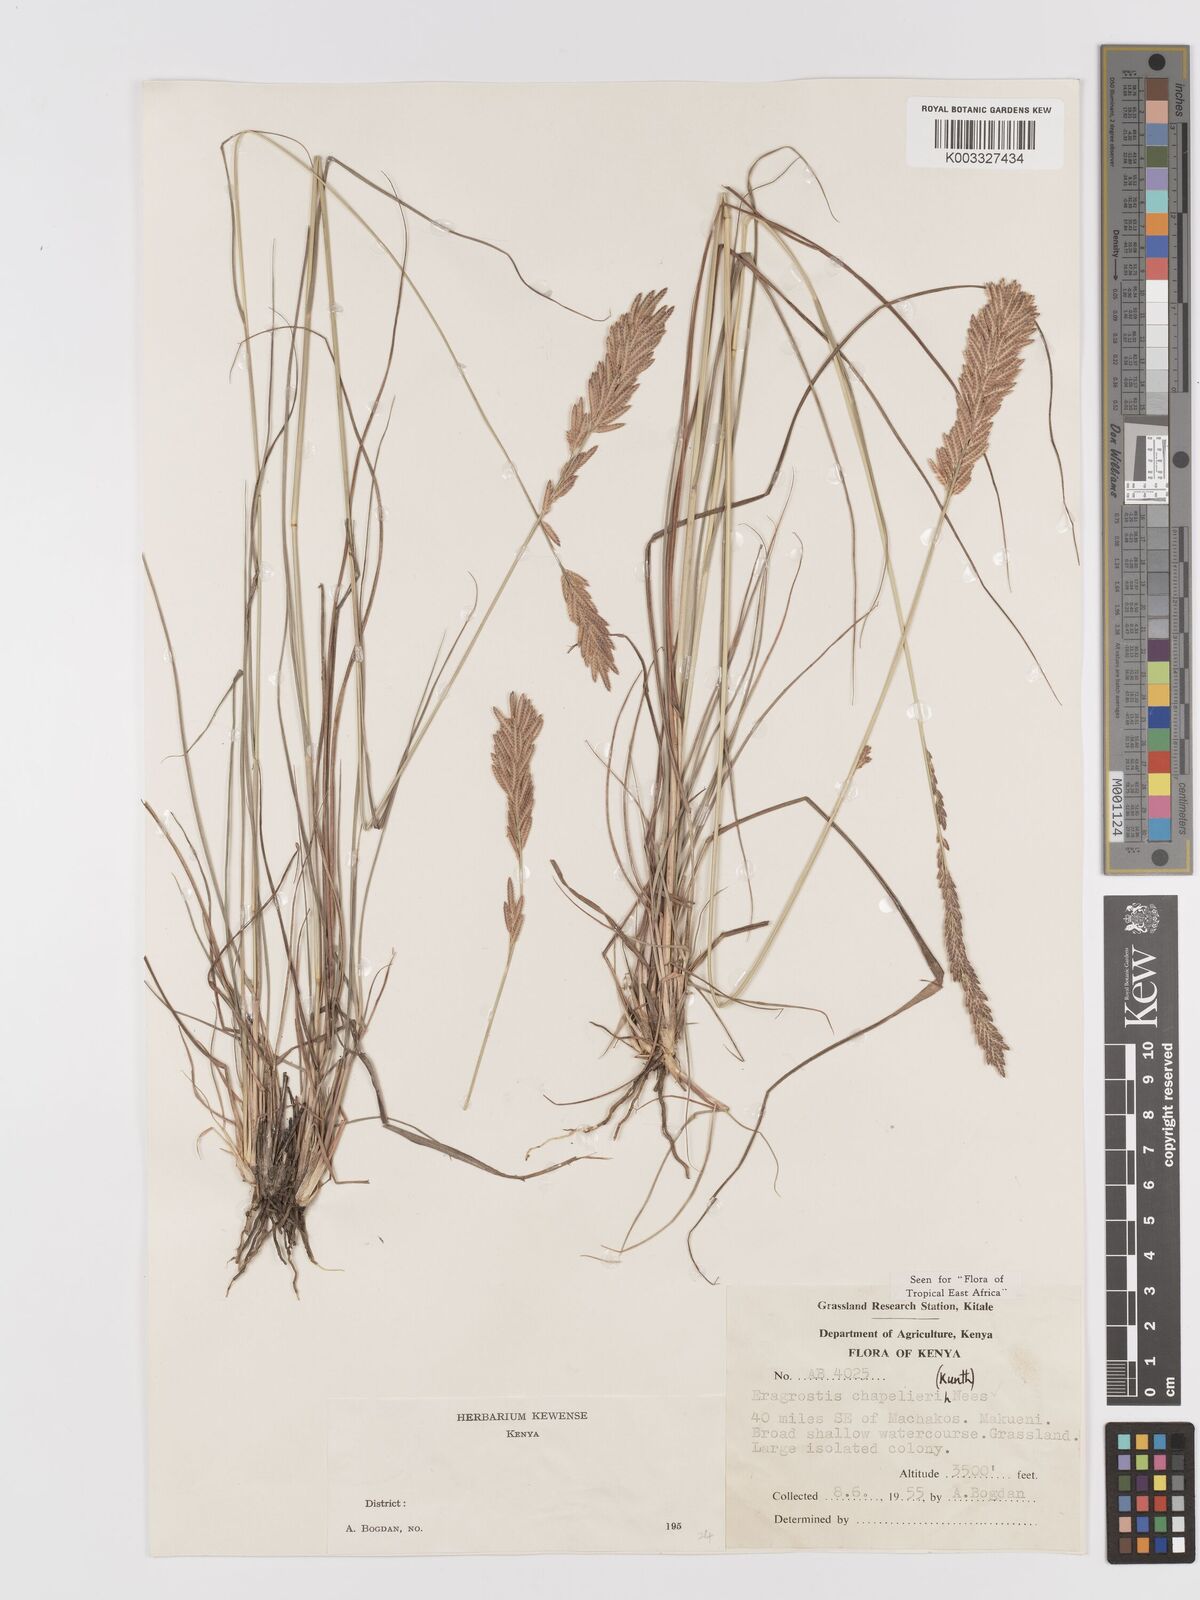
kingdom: Plantae
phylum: Tracheophyta
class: Liliopsida
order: Poales
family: Poaceae
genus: Eragrostis
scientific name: Eragrostis chapelieri
